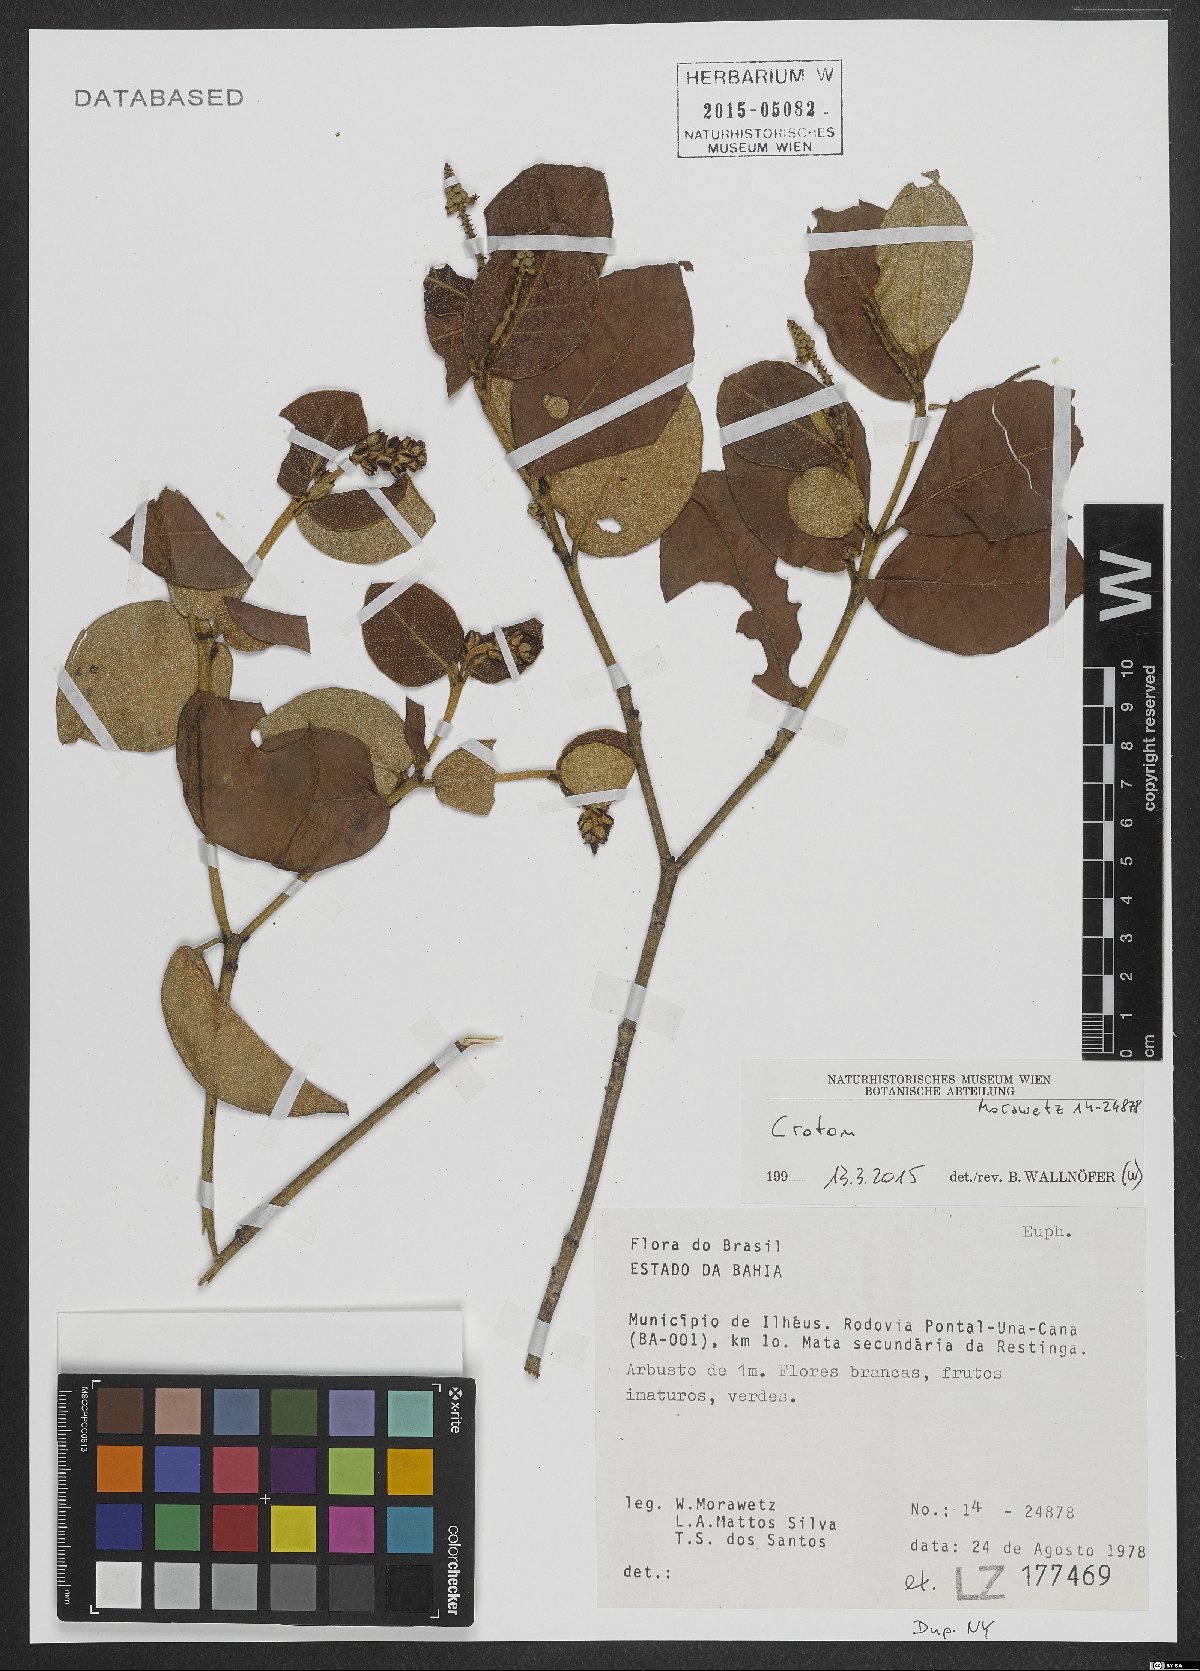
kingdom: Plantae
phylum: Tracheophyta
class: Magnoliopsida
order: Malpighiales
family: Euphorbiaceae
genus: Croton
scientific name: Croton
